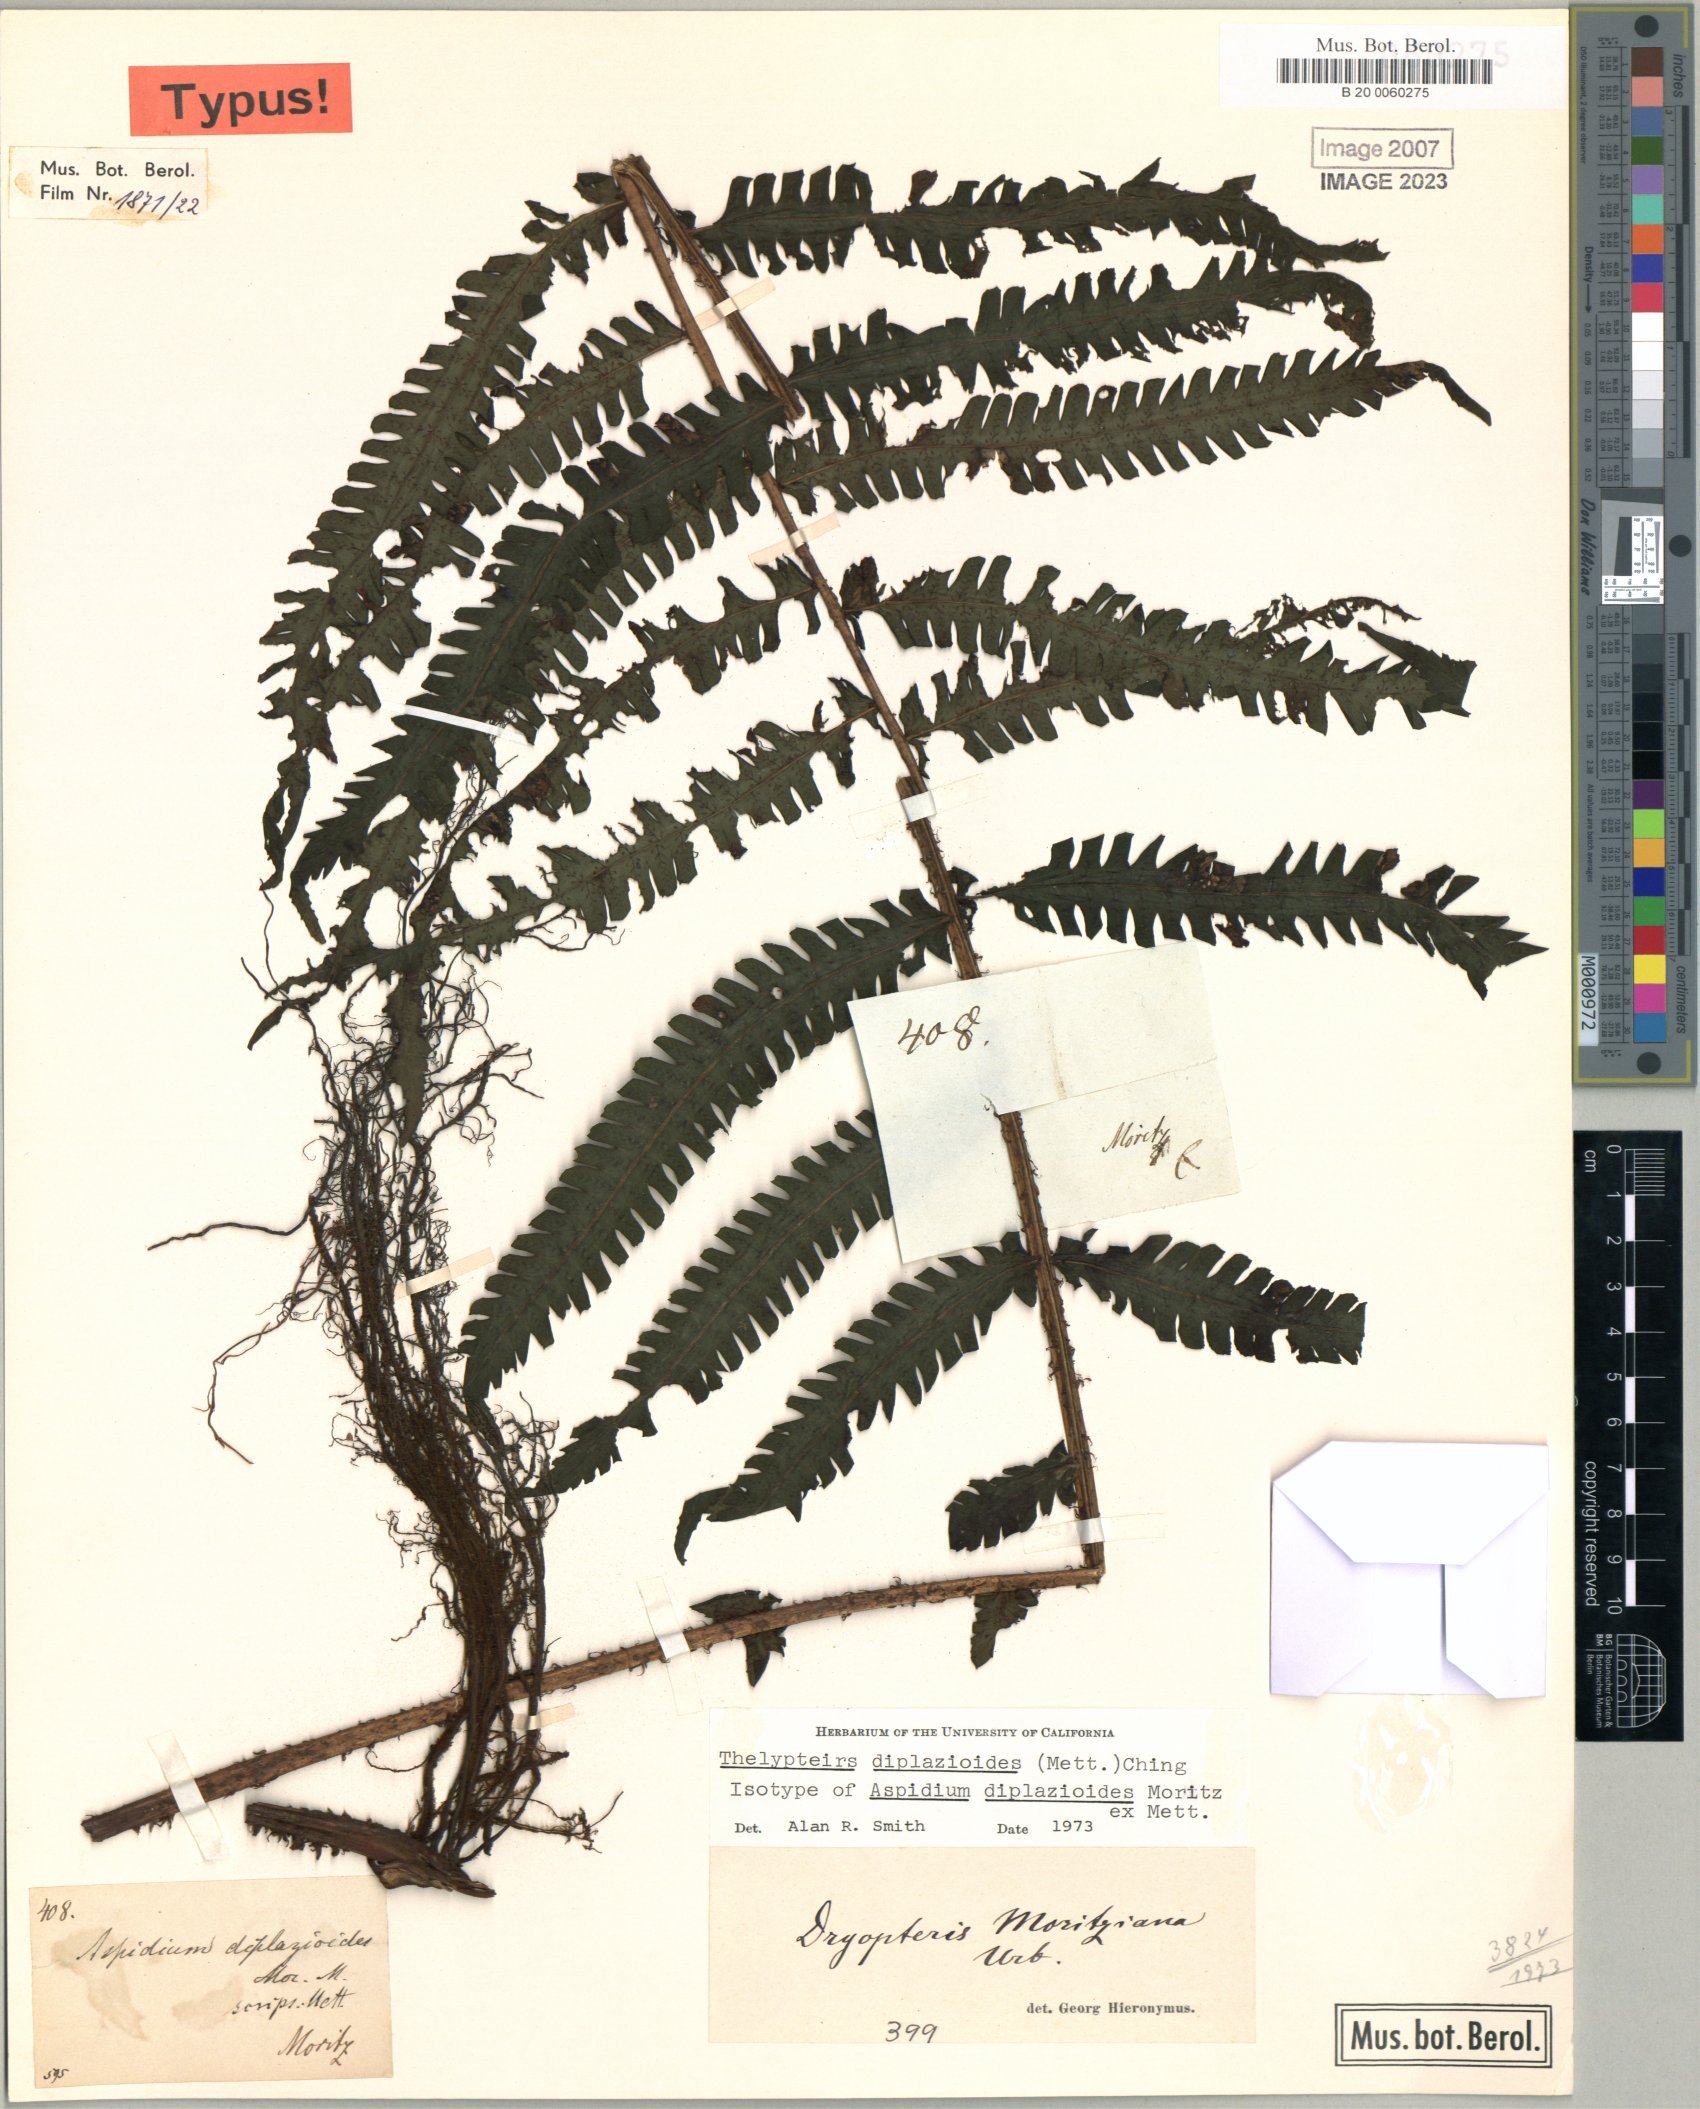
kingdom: Plantae
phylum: Tracheophyta
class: Polypodiopsida
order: Polypodiales
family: Thelypteridaceae
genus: Amauropelta
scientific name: Amauropelta moritziana
